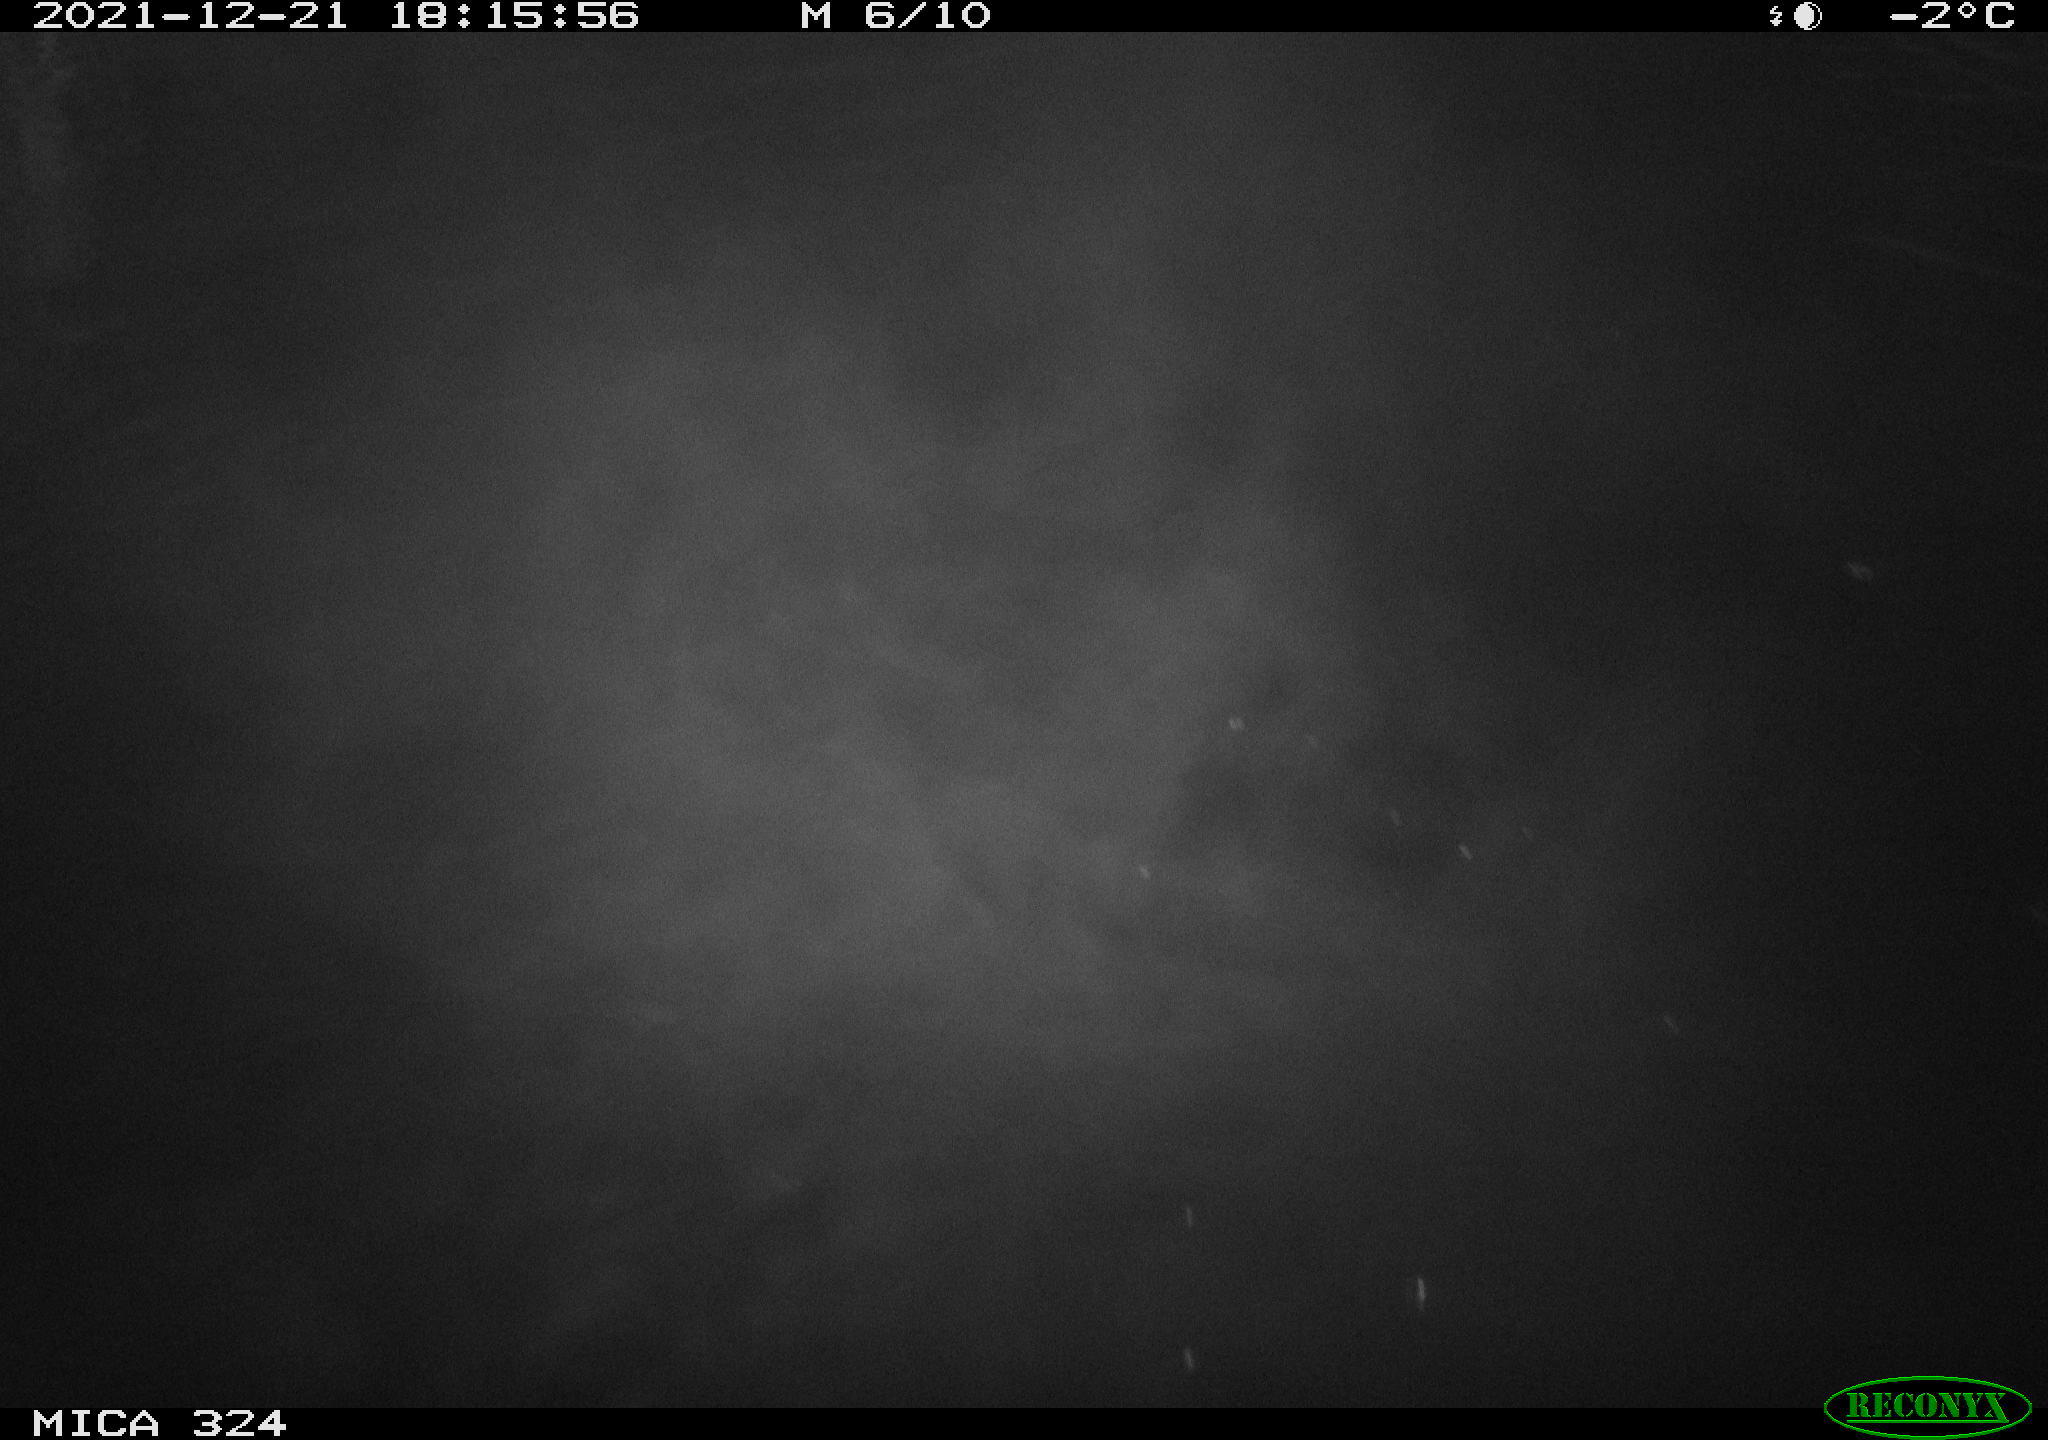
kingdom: Animalia
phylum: Chordata
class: Mammalia
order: Rodentia
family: Cricetidae
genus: Ondatra
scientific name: Ondatra zibethicus
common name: Muskrat
